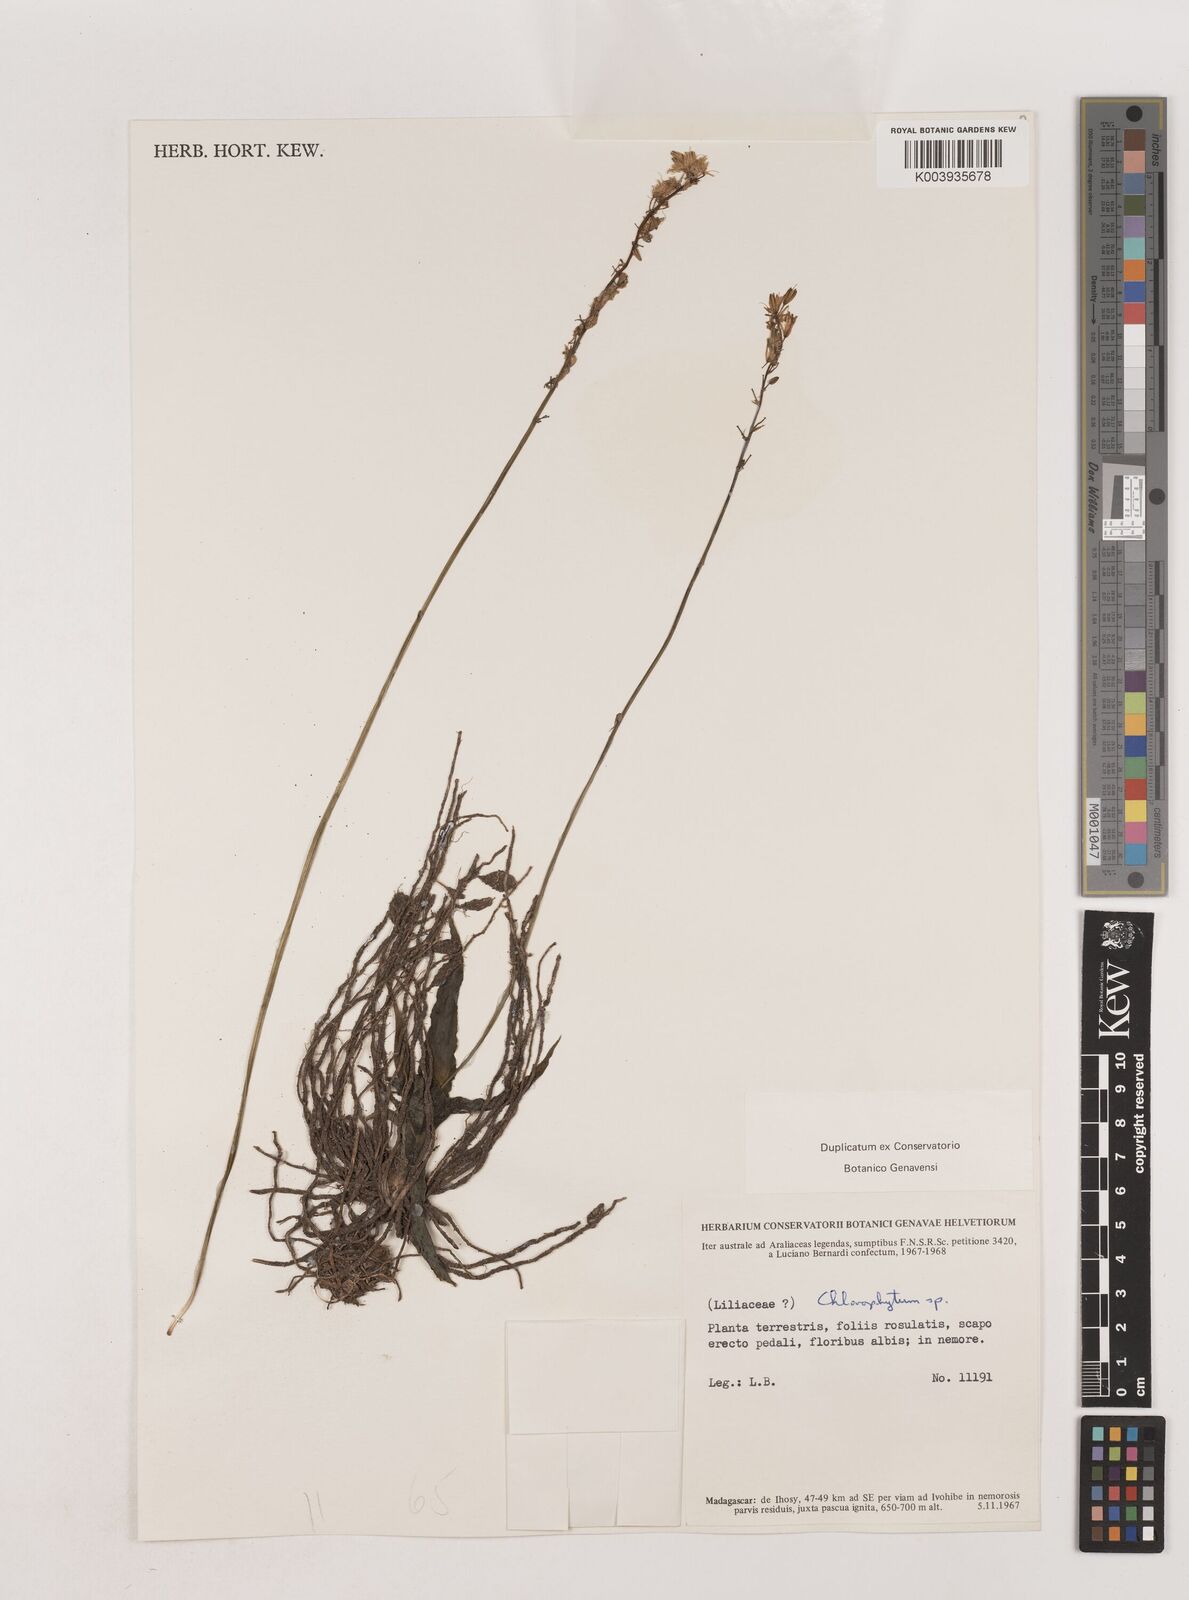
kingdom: Plantae
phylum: Tracheophyta
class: Liliopsida
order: Asparagales
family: Asparagaceae
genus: Chlorophytum
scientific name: Chlorophytum humbertianum
